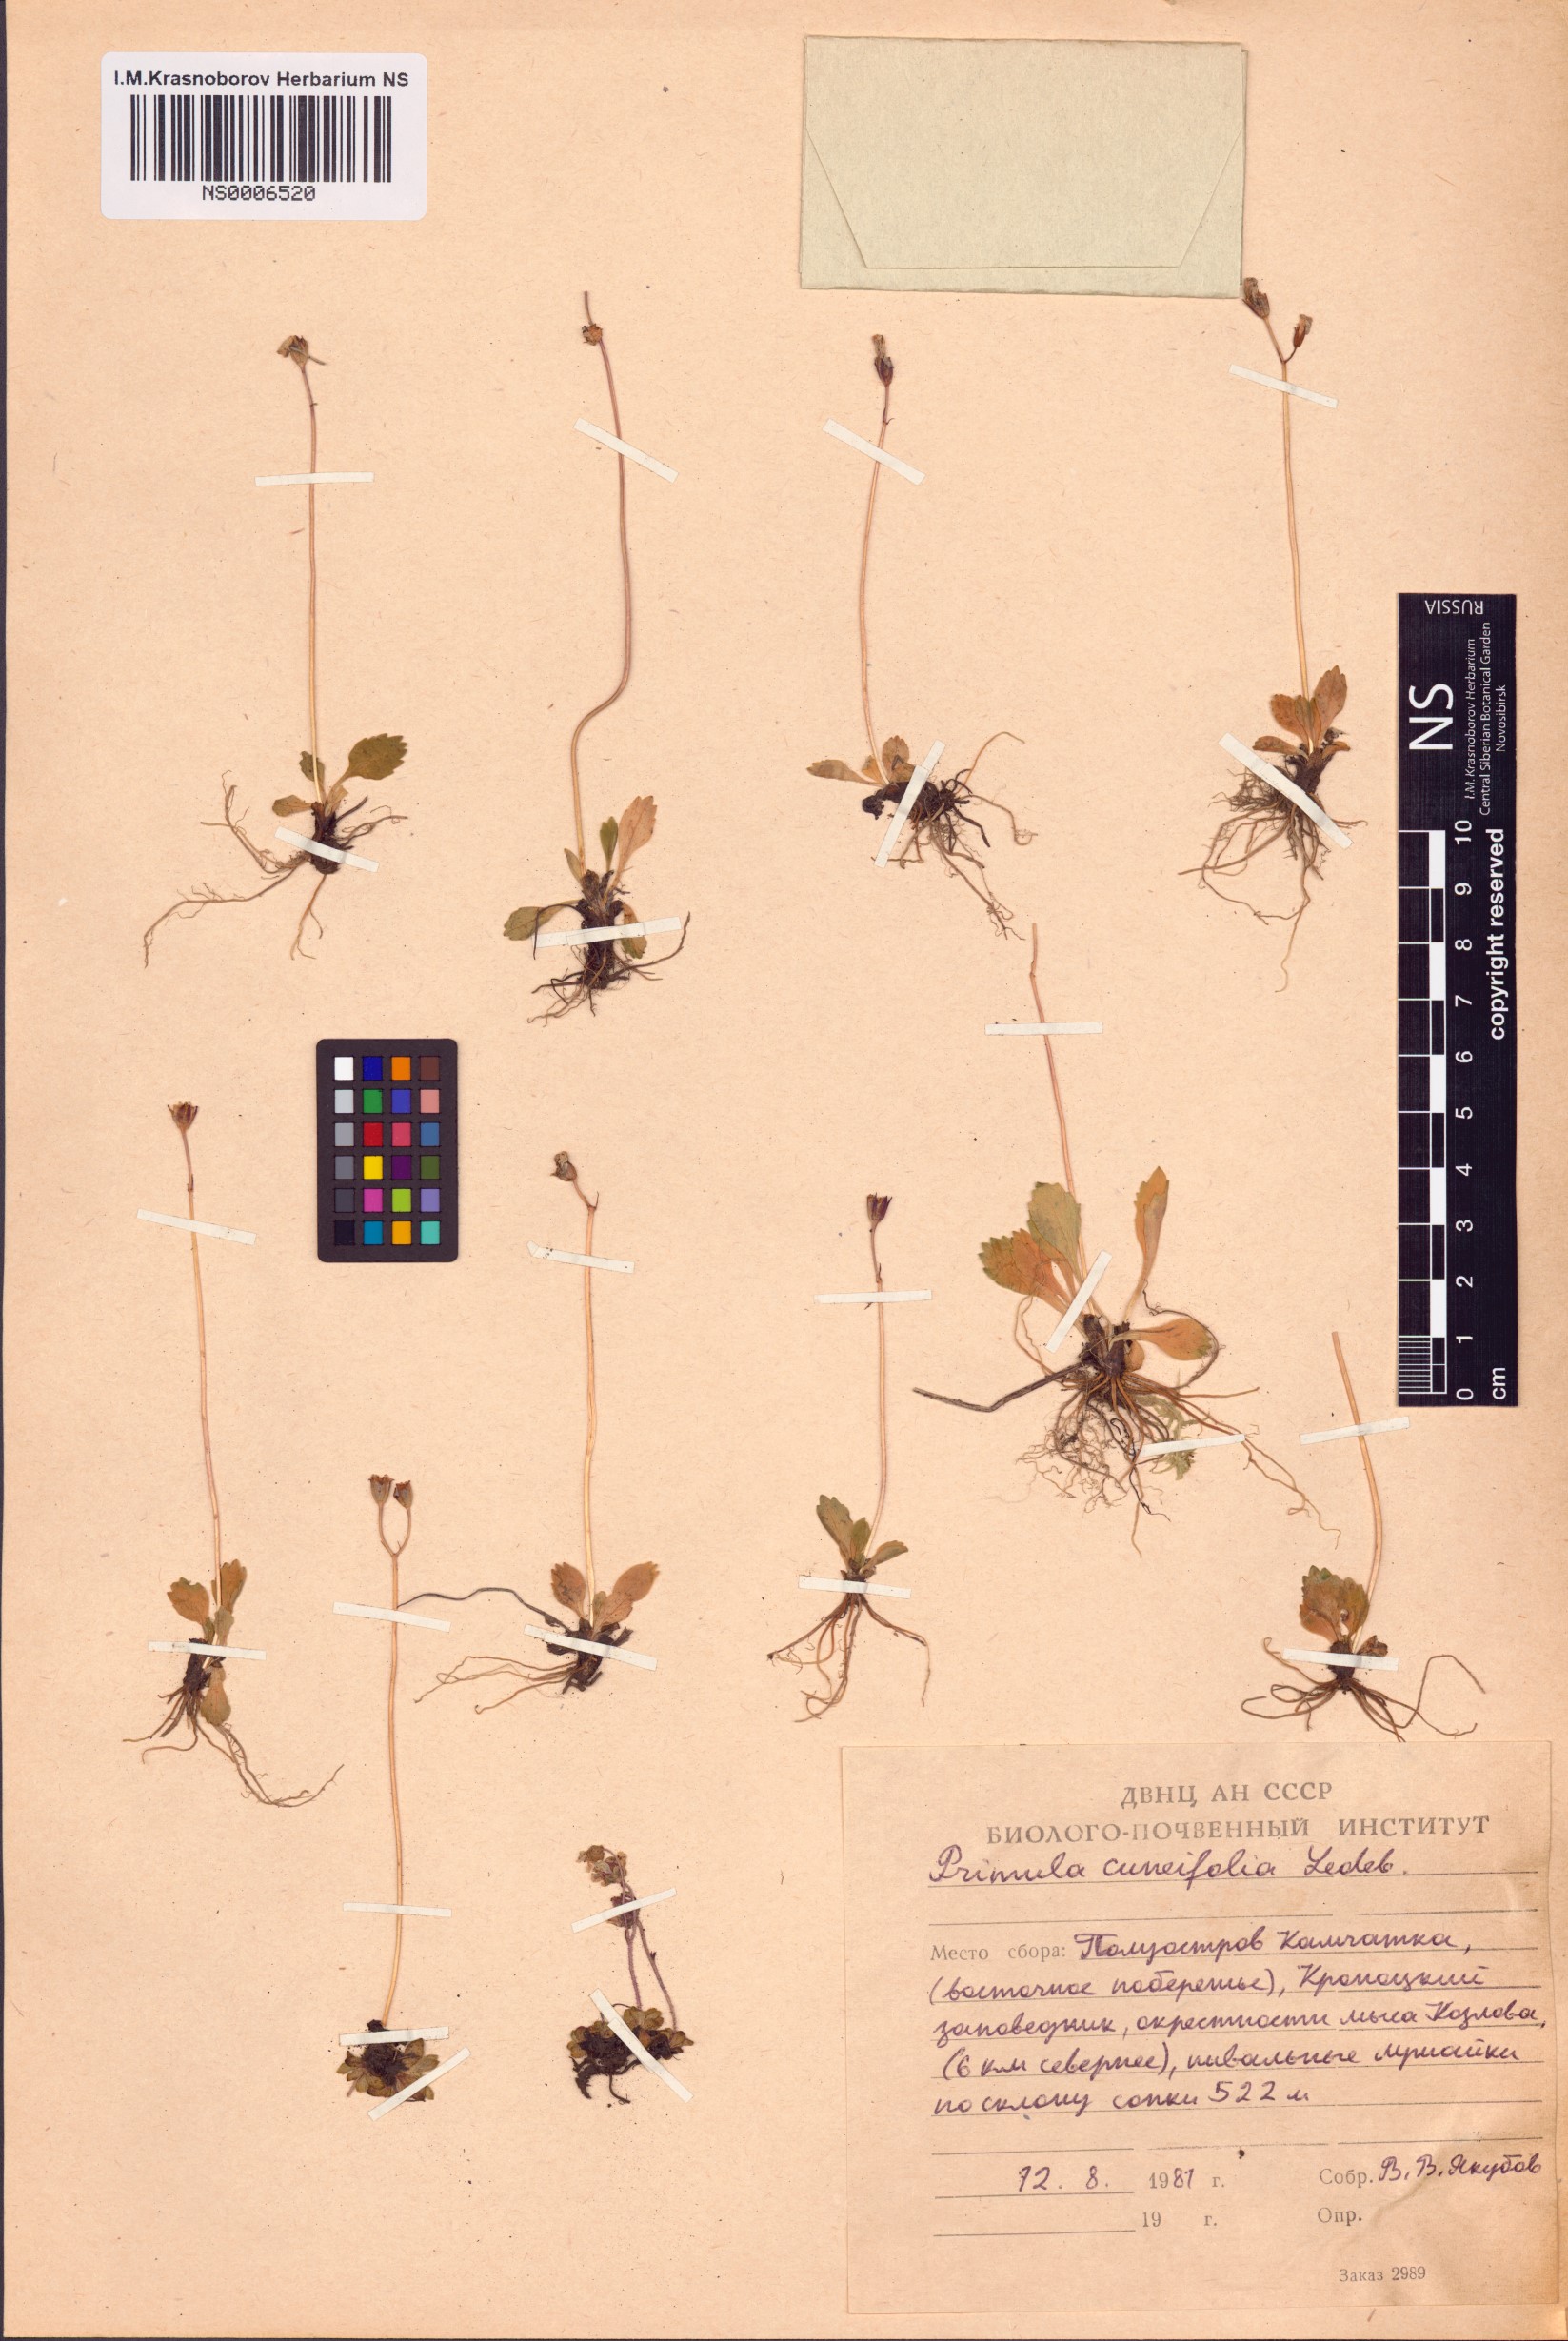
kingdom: Plantae
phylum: Tracheophyta
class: Magnoliopsida
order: Ericales
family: Primulaceae
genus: Primula
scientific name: Primula cuneifolia
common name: Wedge-leaved primrose
